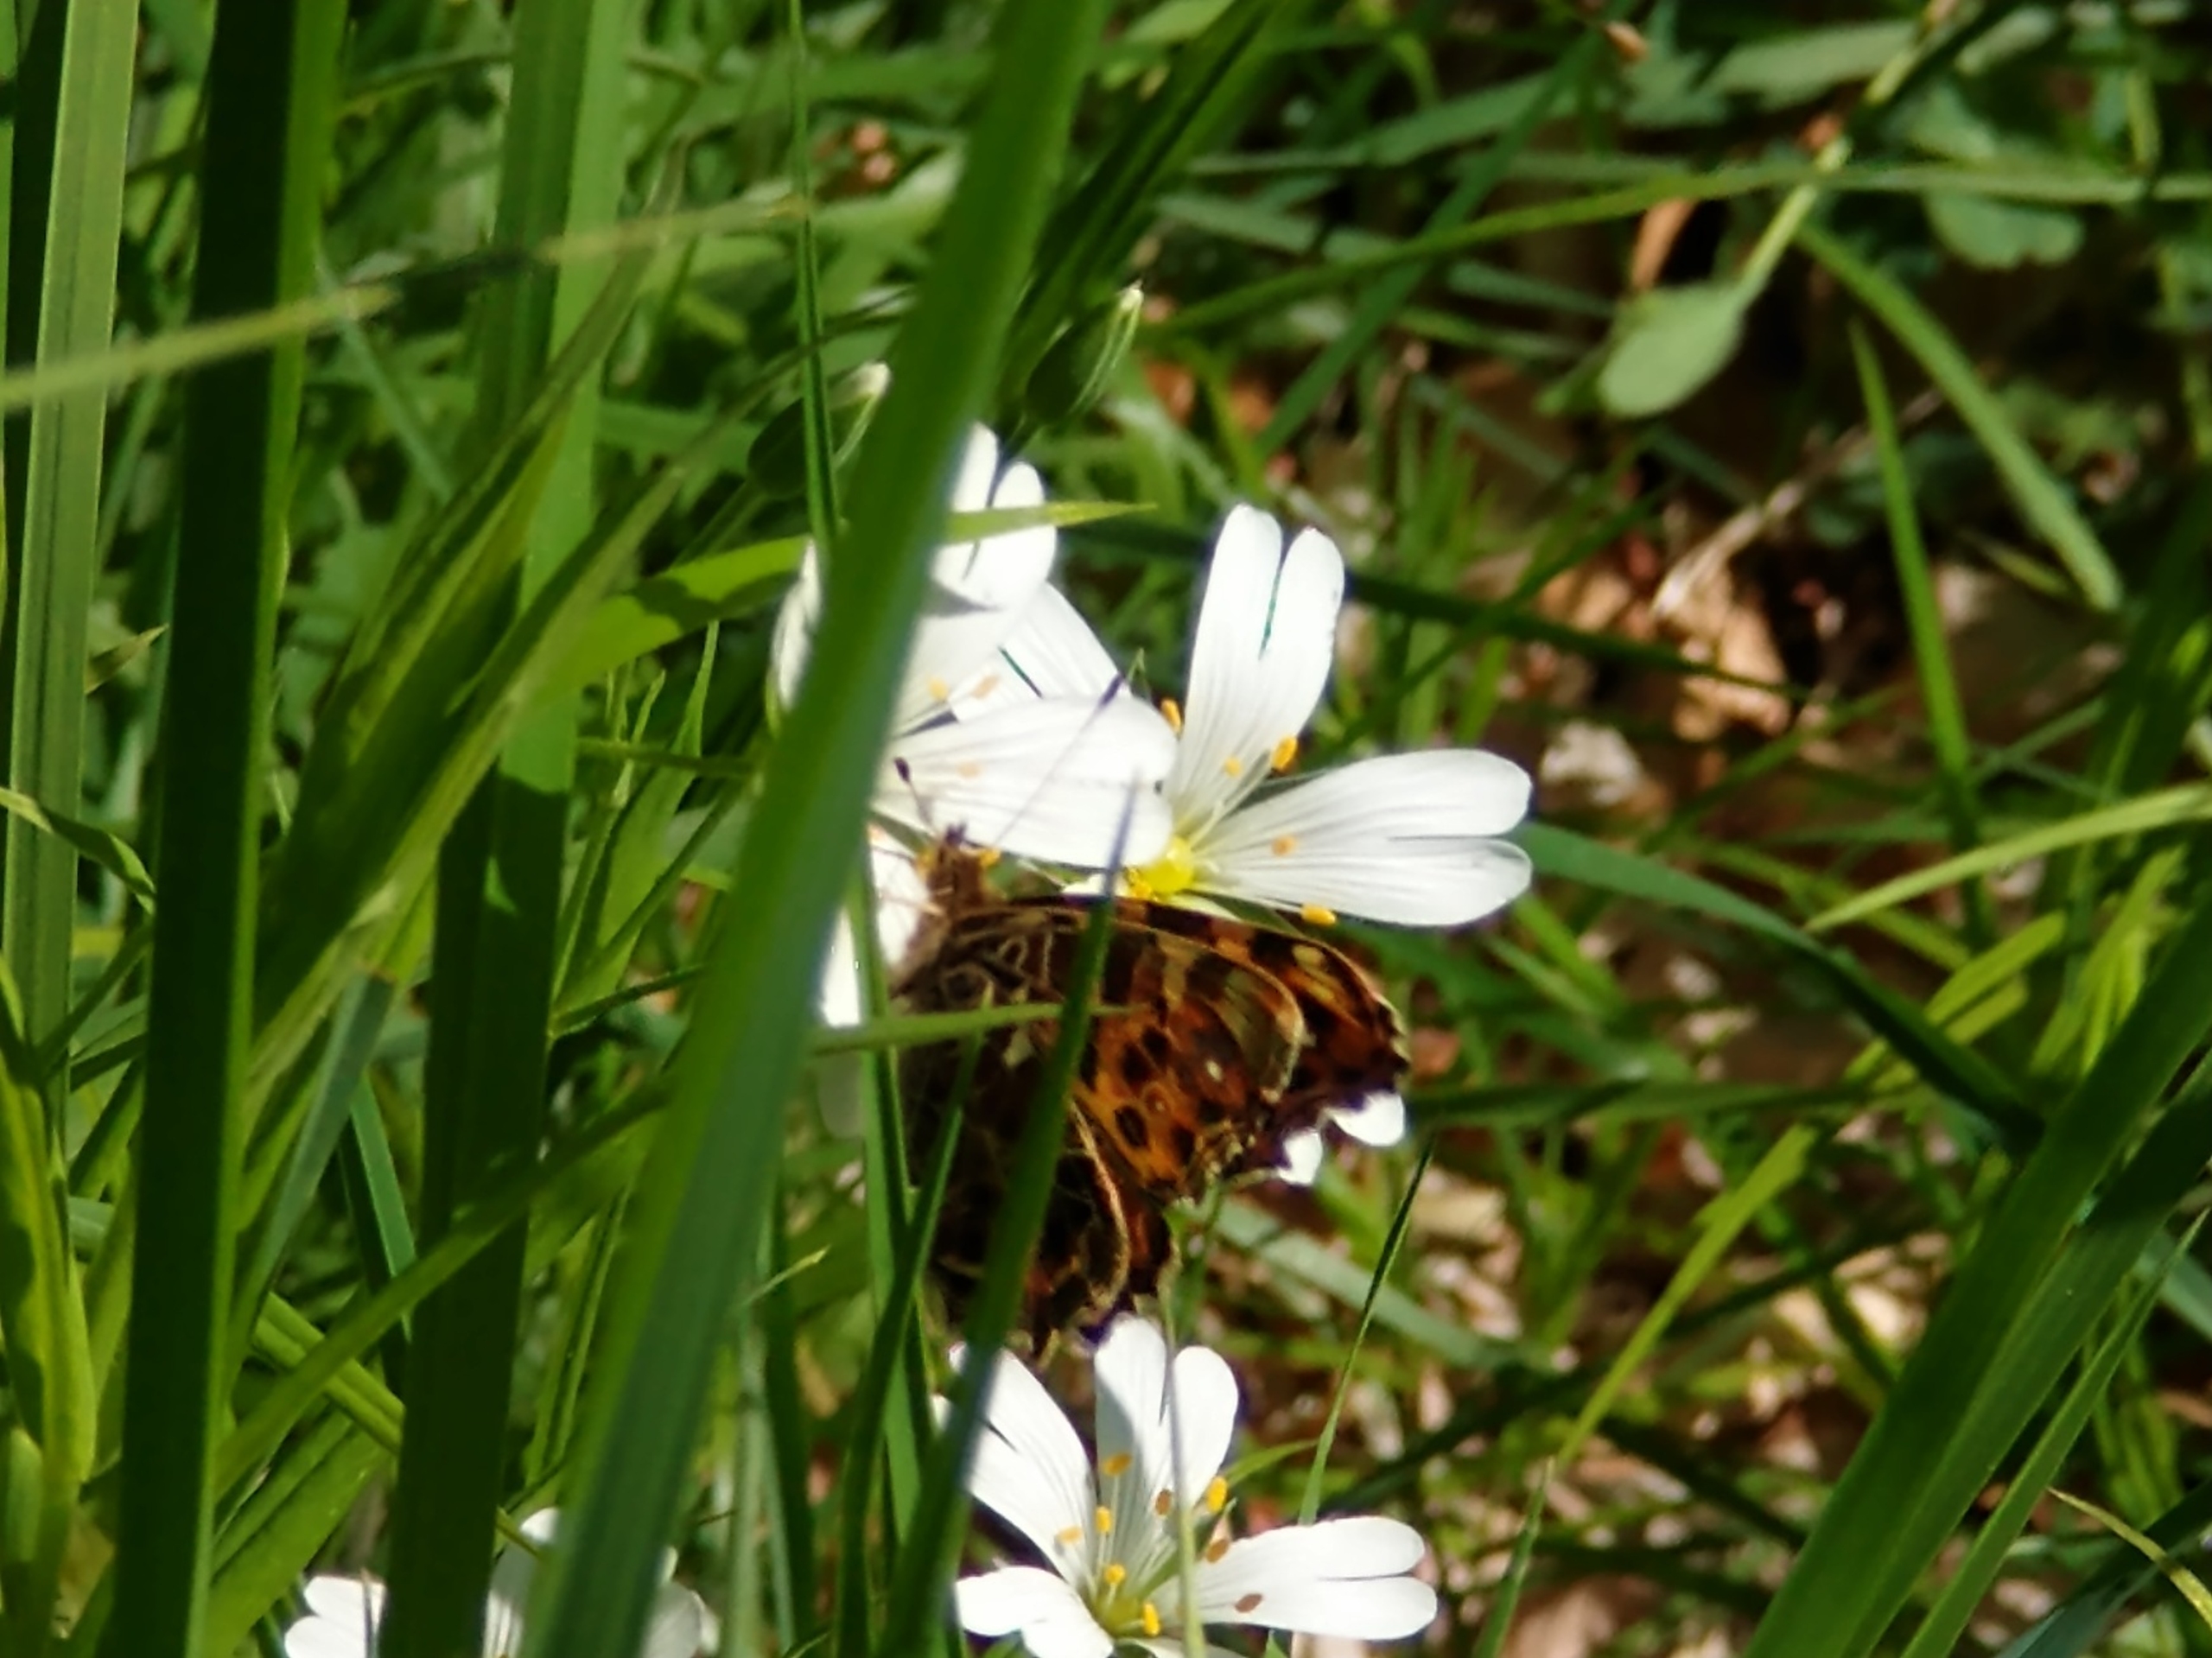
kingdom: Animalia
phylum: Arthropoda
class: Insecta
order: Lepidoptera
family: Nymphalidae
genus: Araschnia
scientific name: Araschnia levana
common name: Nældesommerfugl
